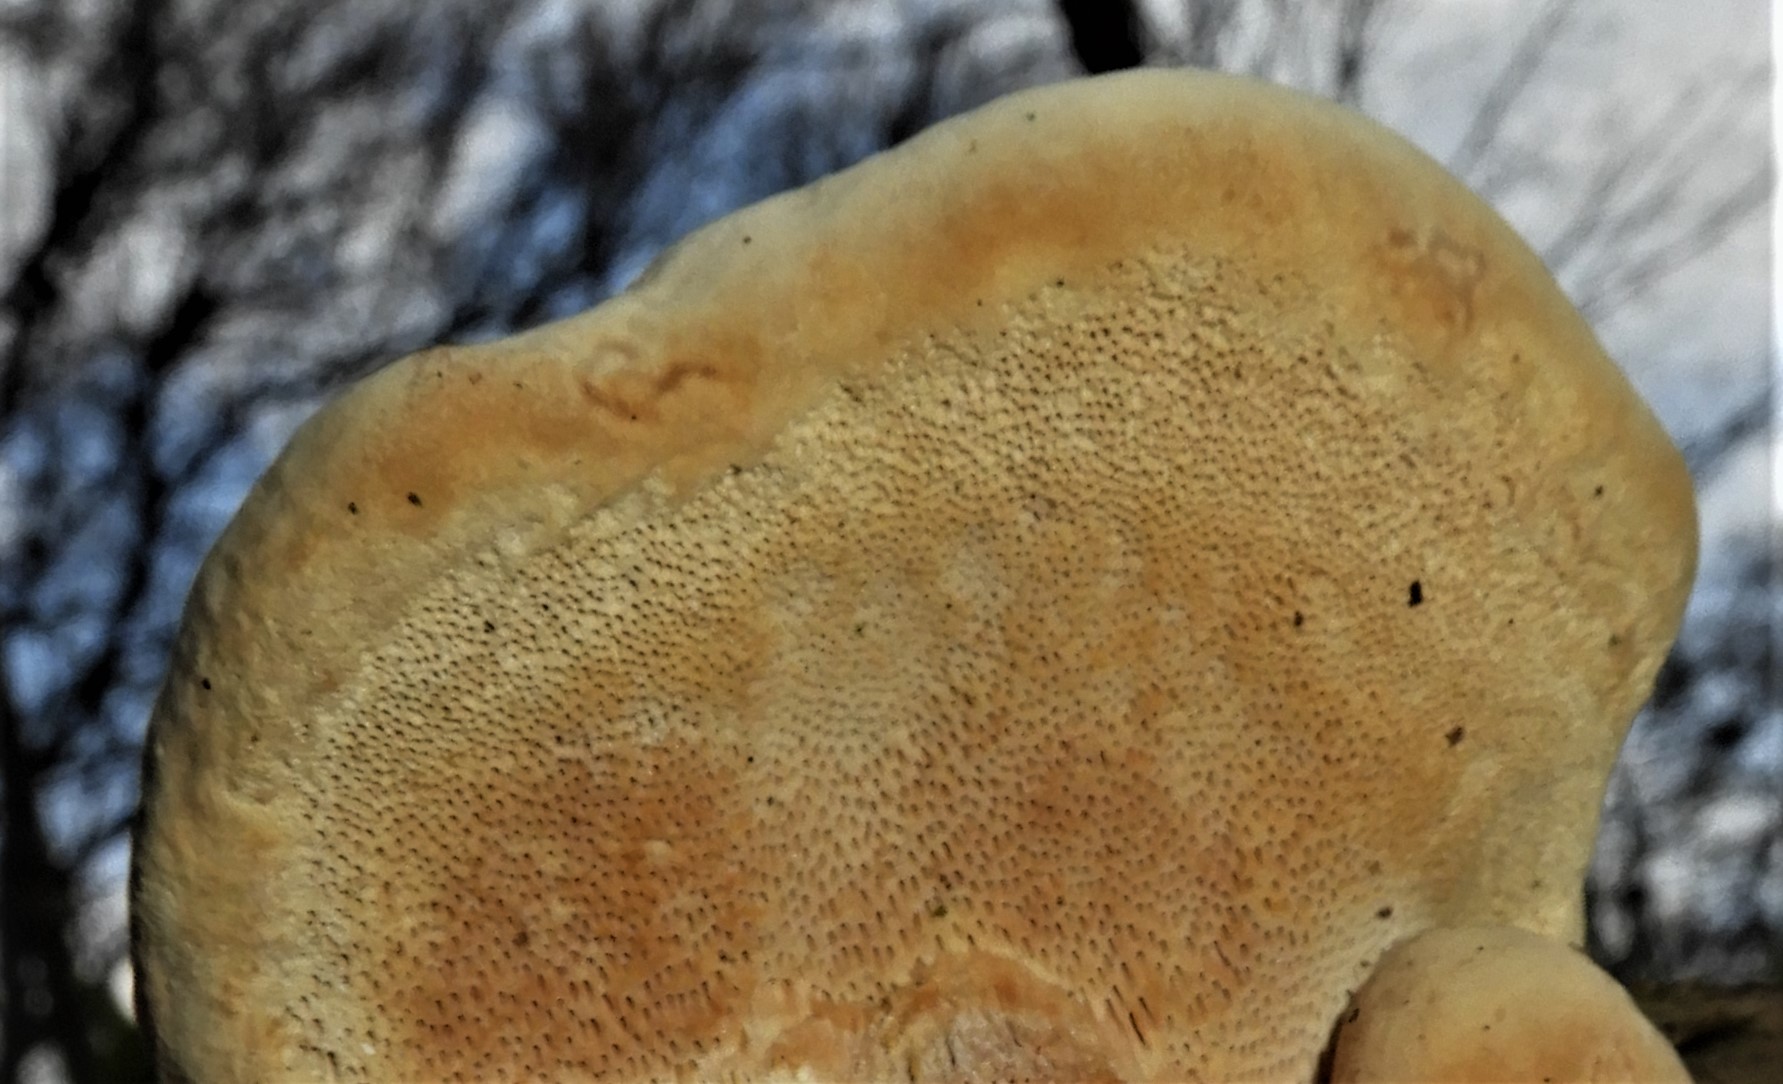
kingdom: Fungi
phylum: Basidiomycota
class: Agaricomycetes
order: Polyporales
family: Fomitopsidaceae
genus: Fomitopsis
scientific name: Fomitopsis pinicola
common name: randbæltet hovporesvamp
